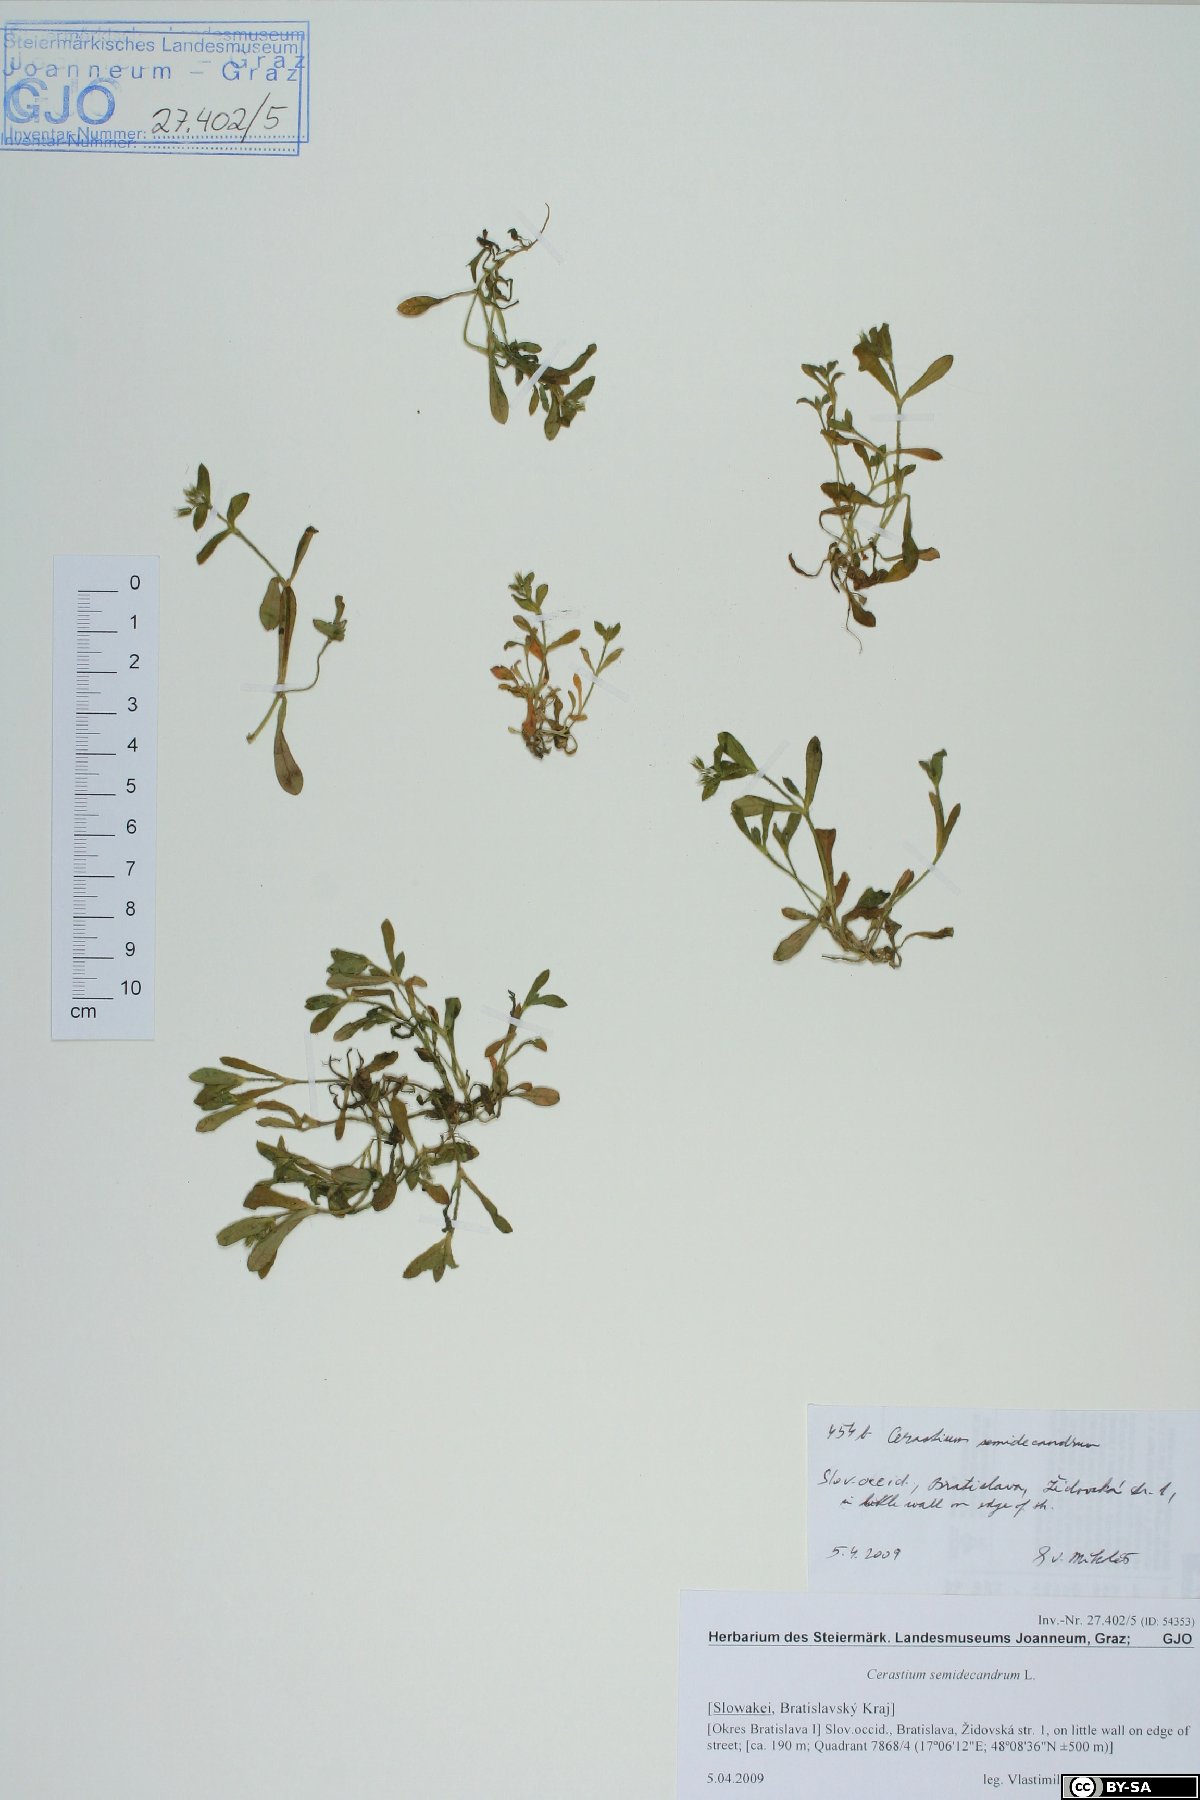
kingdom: Plantae
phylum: Tracheophyta
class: Magnoliopsida
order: Caryophyllales
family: Caryophyllaceae
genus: Cerastium
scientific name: Cerastium semidecandrum
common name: Little mouse-ear
